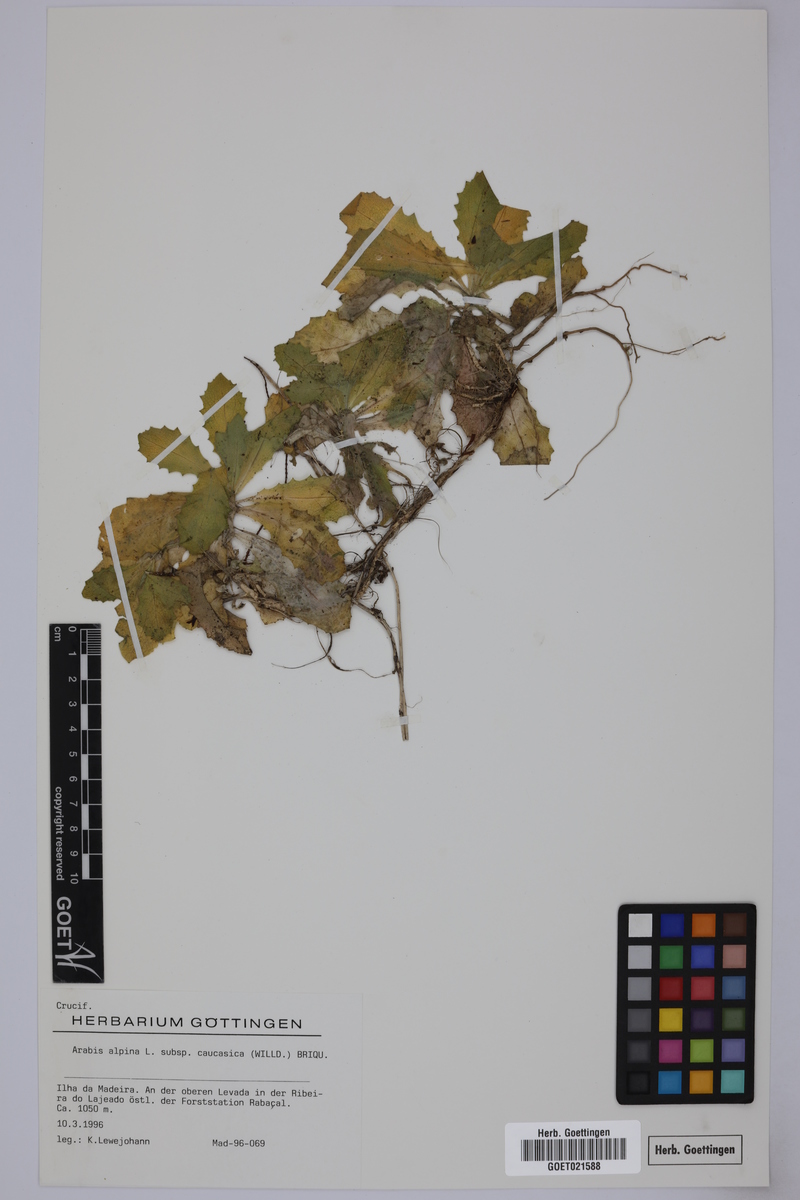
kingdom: Plantae
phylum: Tracheophyta
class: Magnoliopsida
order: Brassicales
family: Brassicaceae
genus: Arabis
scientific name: Arabis caucasica
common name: Gray rockcress
